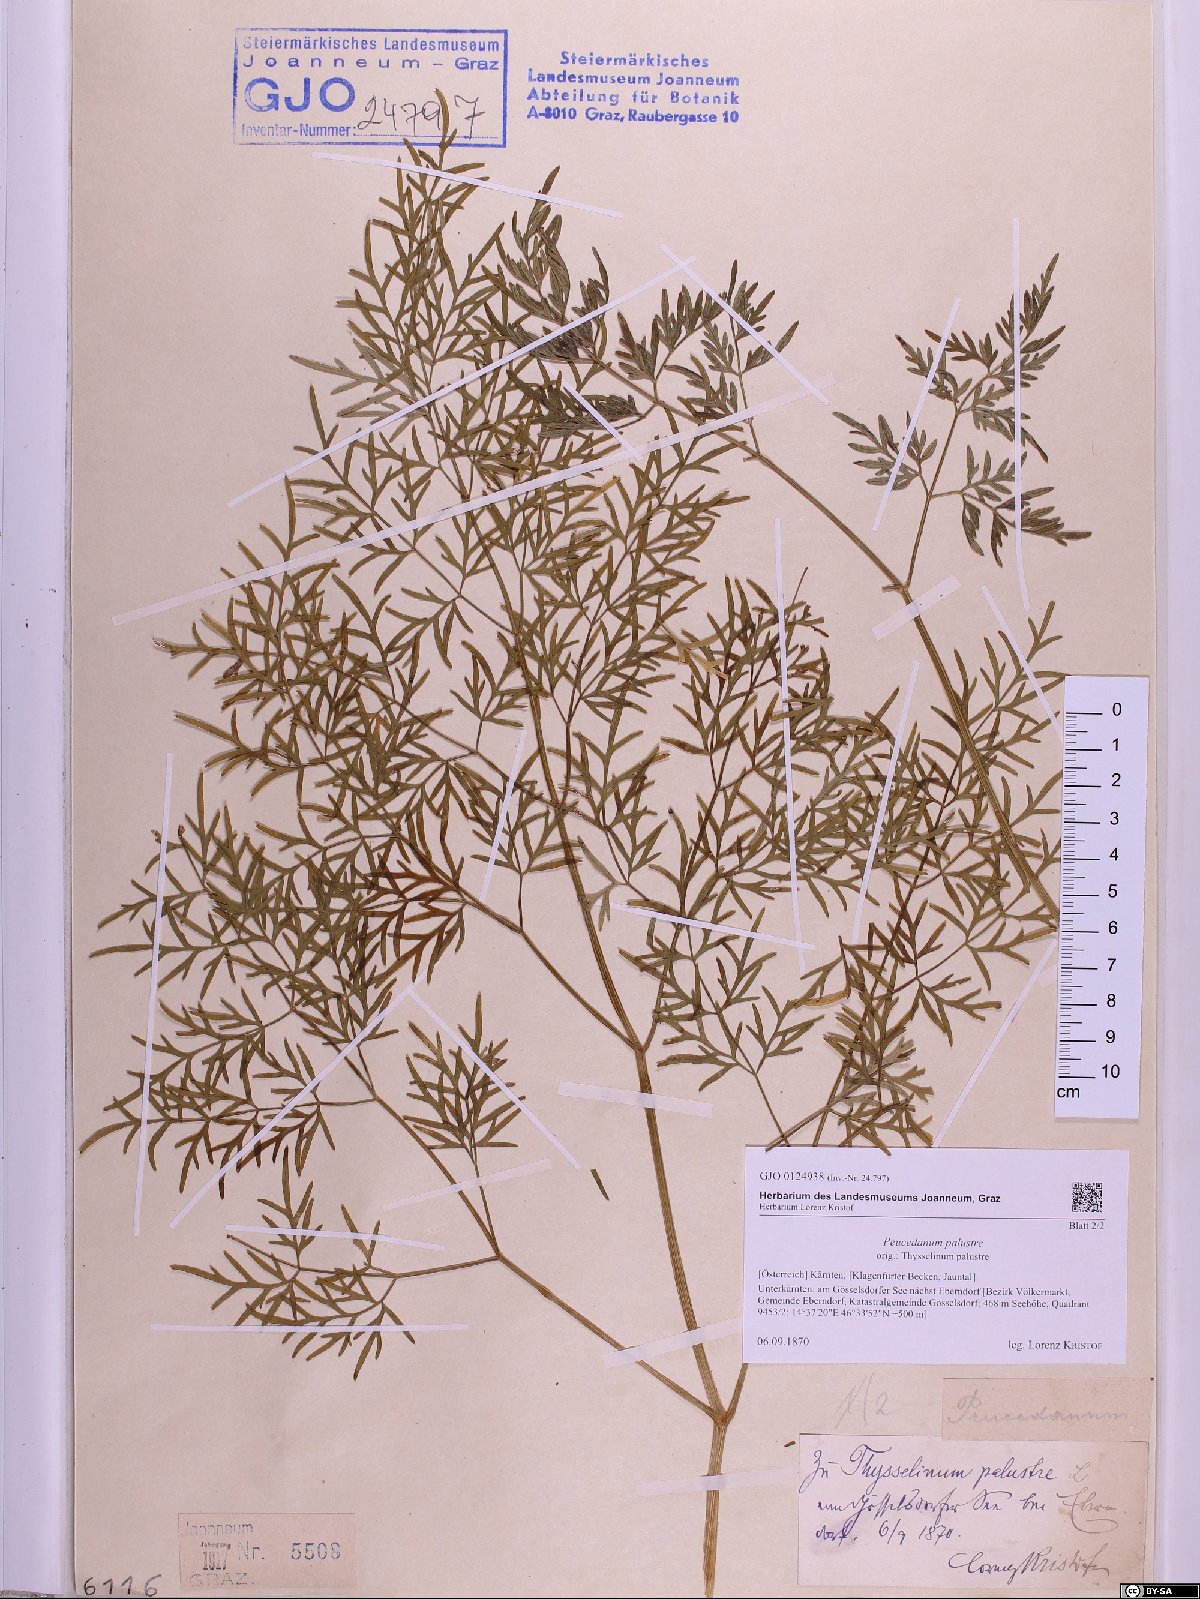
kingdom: Plantae
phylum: Tracheophyta
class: Magnoliopsida
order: Apiales
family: Apiaceae
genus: Thysselinum
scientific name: Thysselinum palustre
